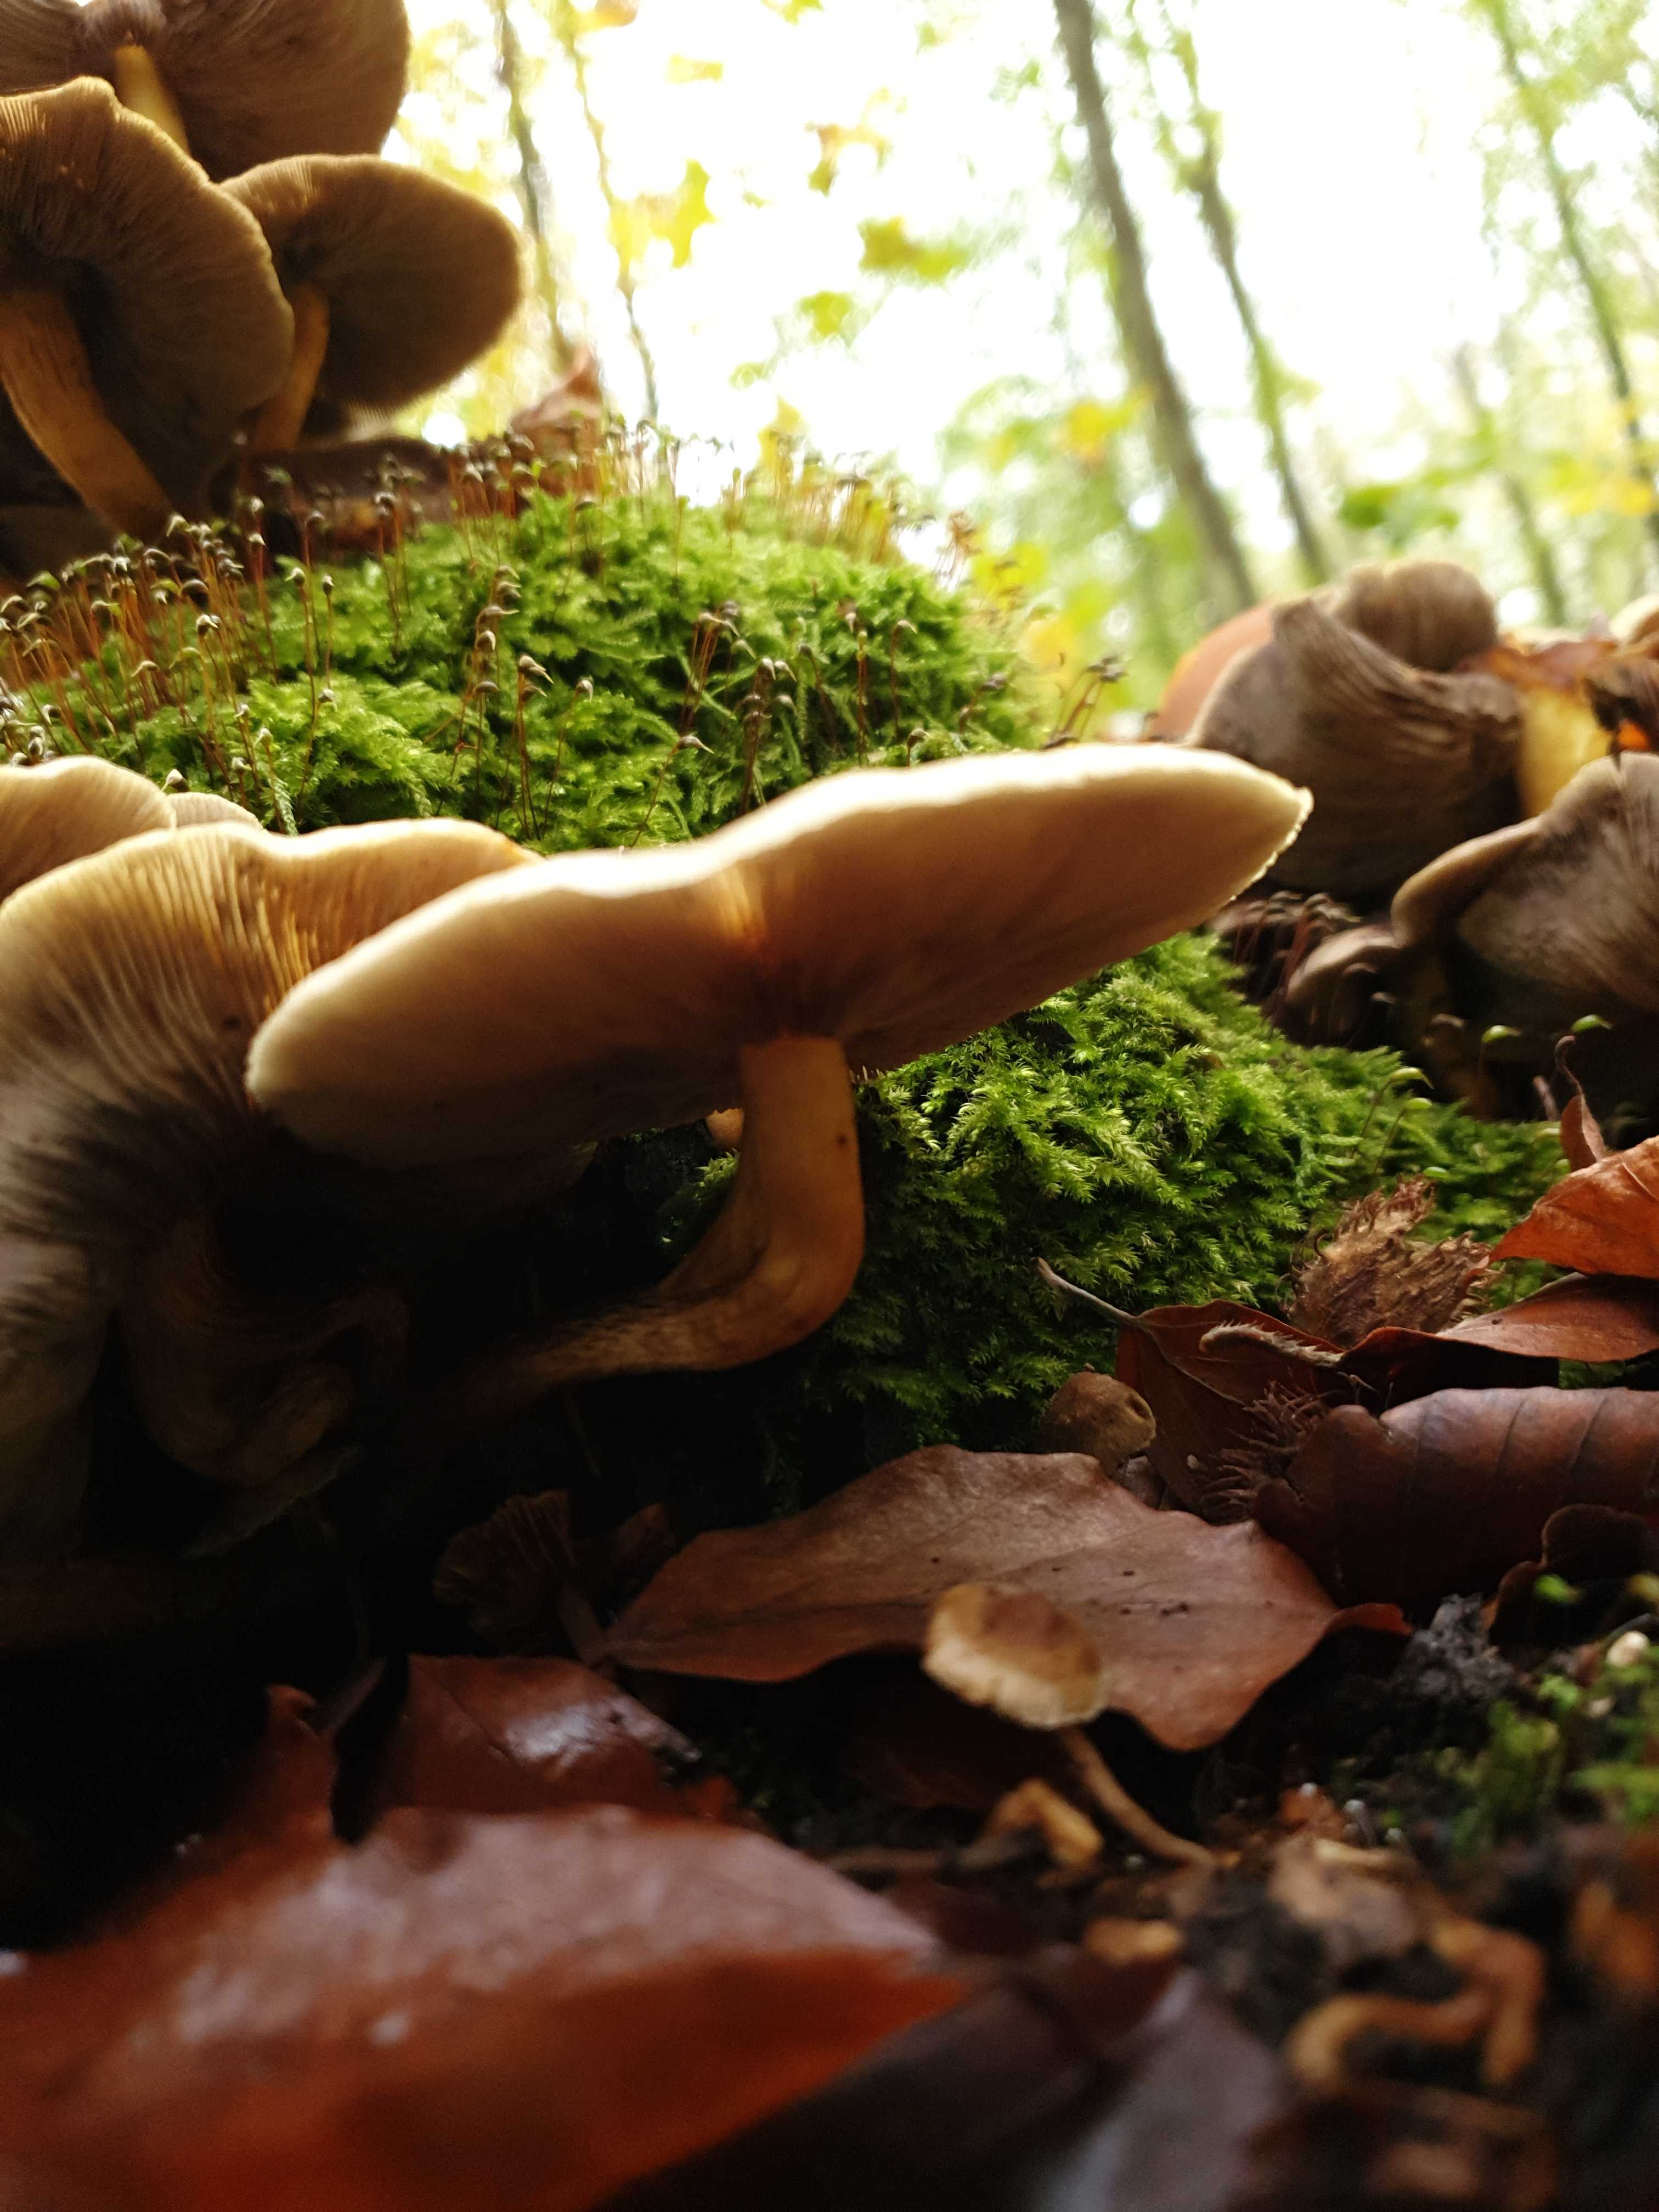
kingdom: Fungi
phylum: Basidiomycota
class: Agaricomycetes
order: Agaricales
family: Strophariaceae
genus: Hypholoma
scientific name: Hypholoma fasciculare
